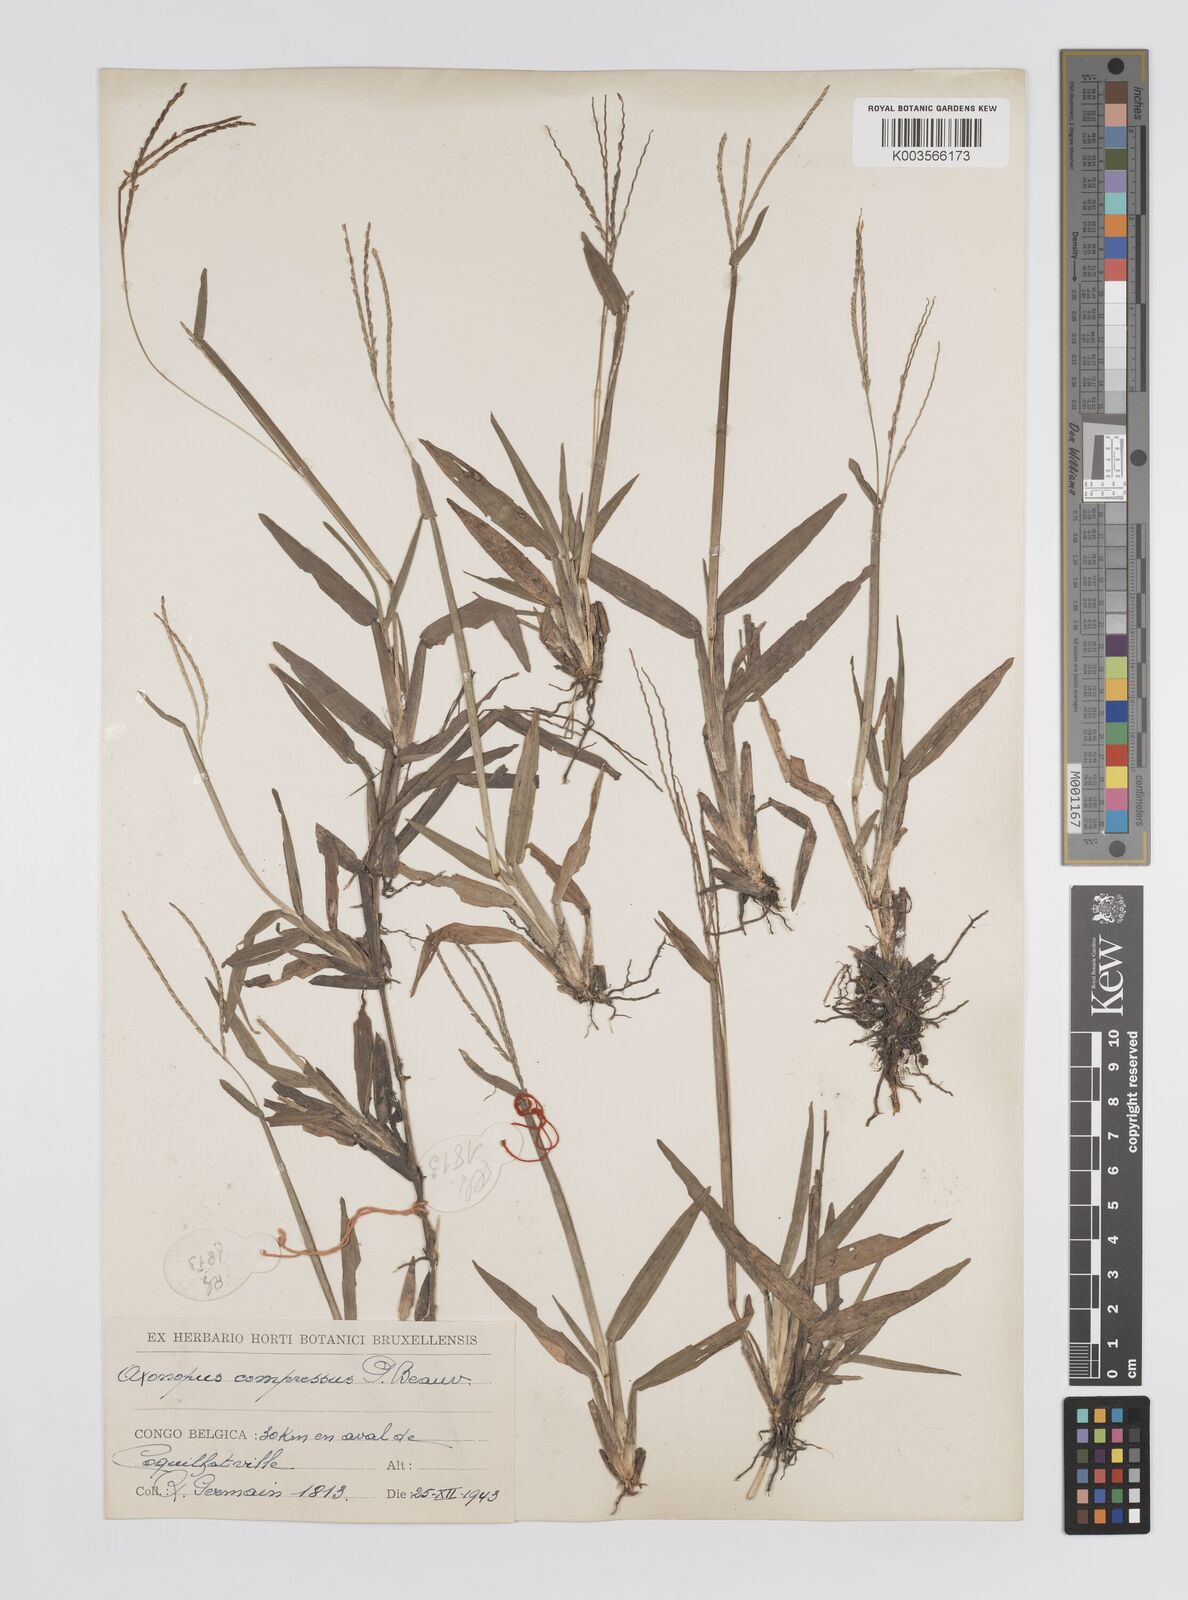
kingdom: Plantae
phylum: Tracheophyta
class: Liliopsida
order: Poales
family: Poaceae
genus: Axonopus
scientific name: Axonopus flexuosus
